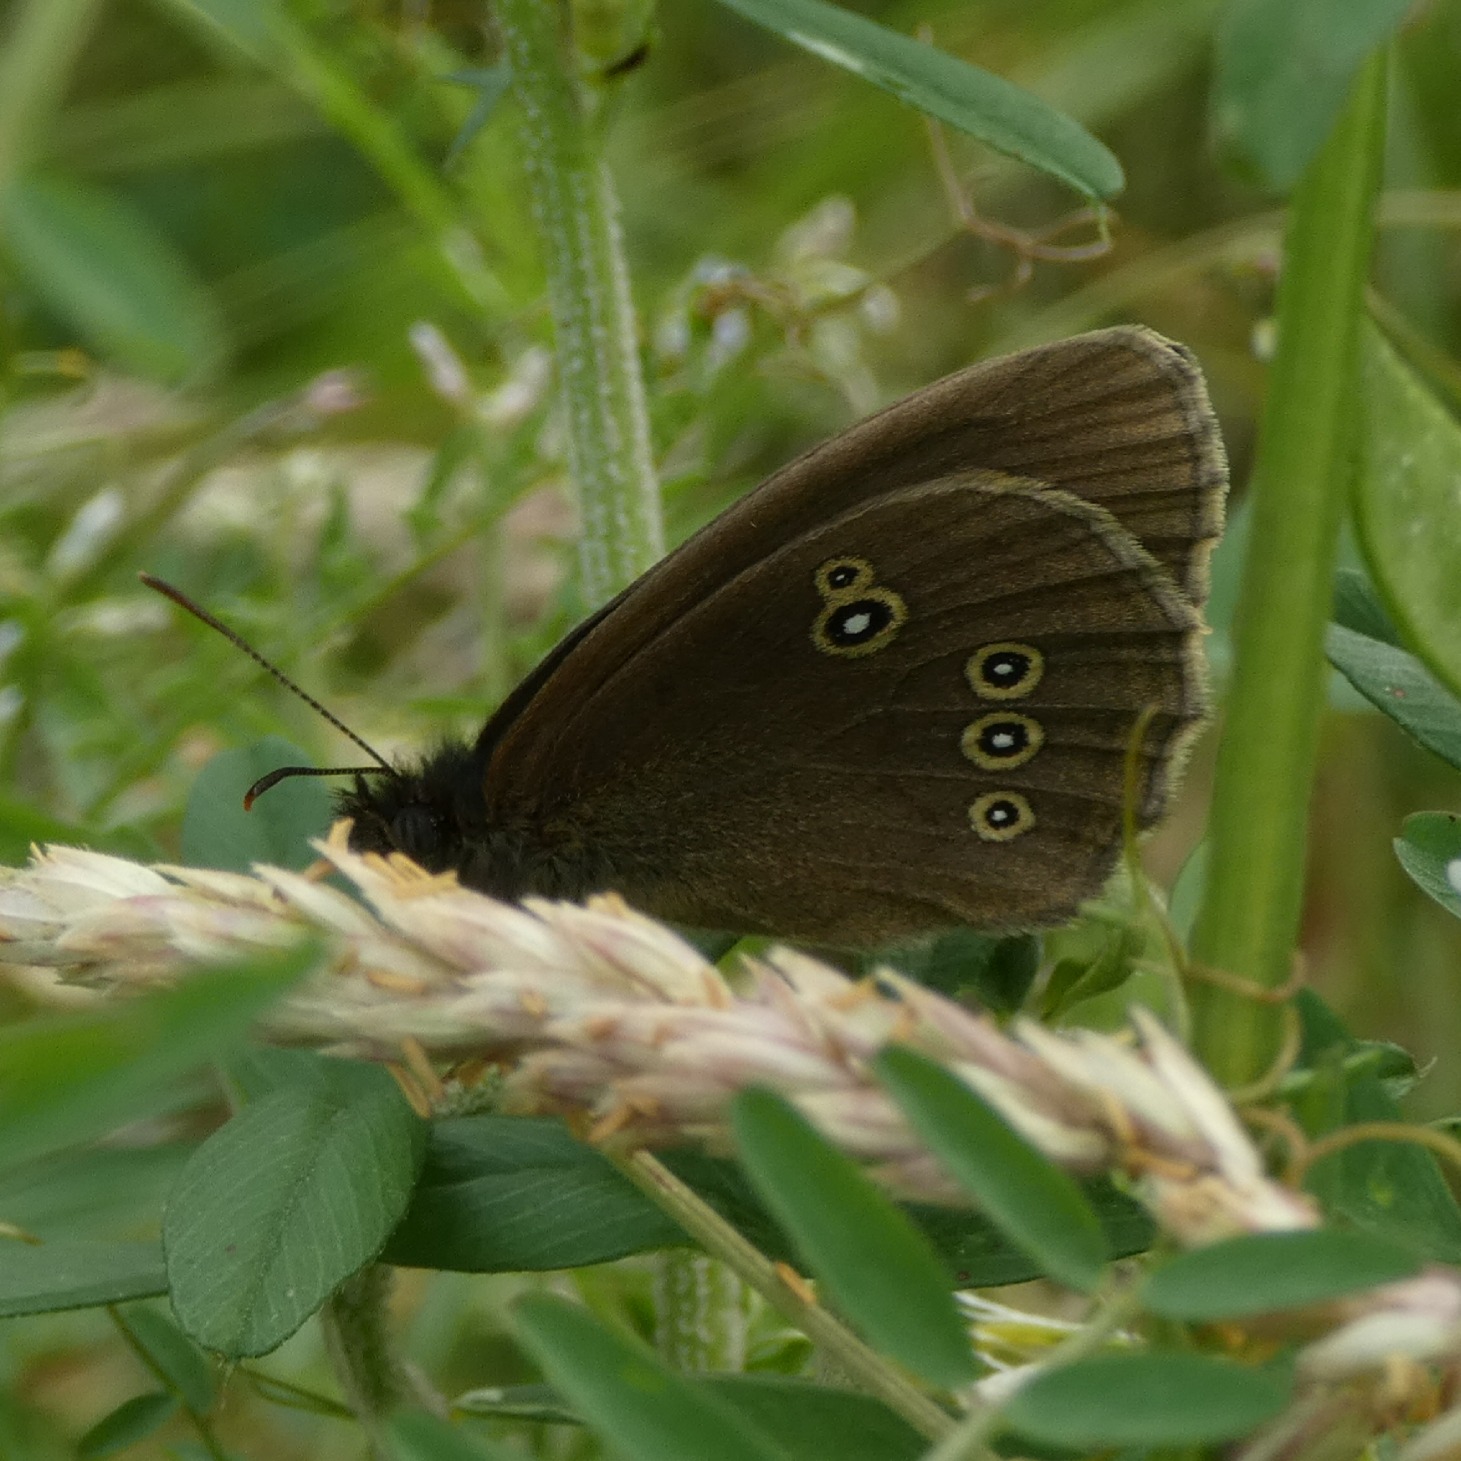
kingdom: Animalia
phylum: Arthropoda
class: Insecta
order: Lepidoptera
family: Nymphalidae
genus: Aphantopus
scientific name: Aphantopus hyperantus
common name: Engrandøje
